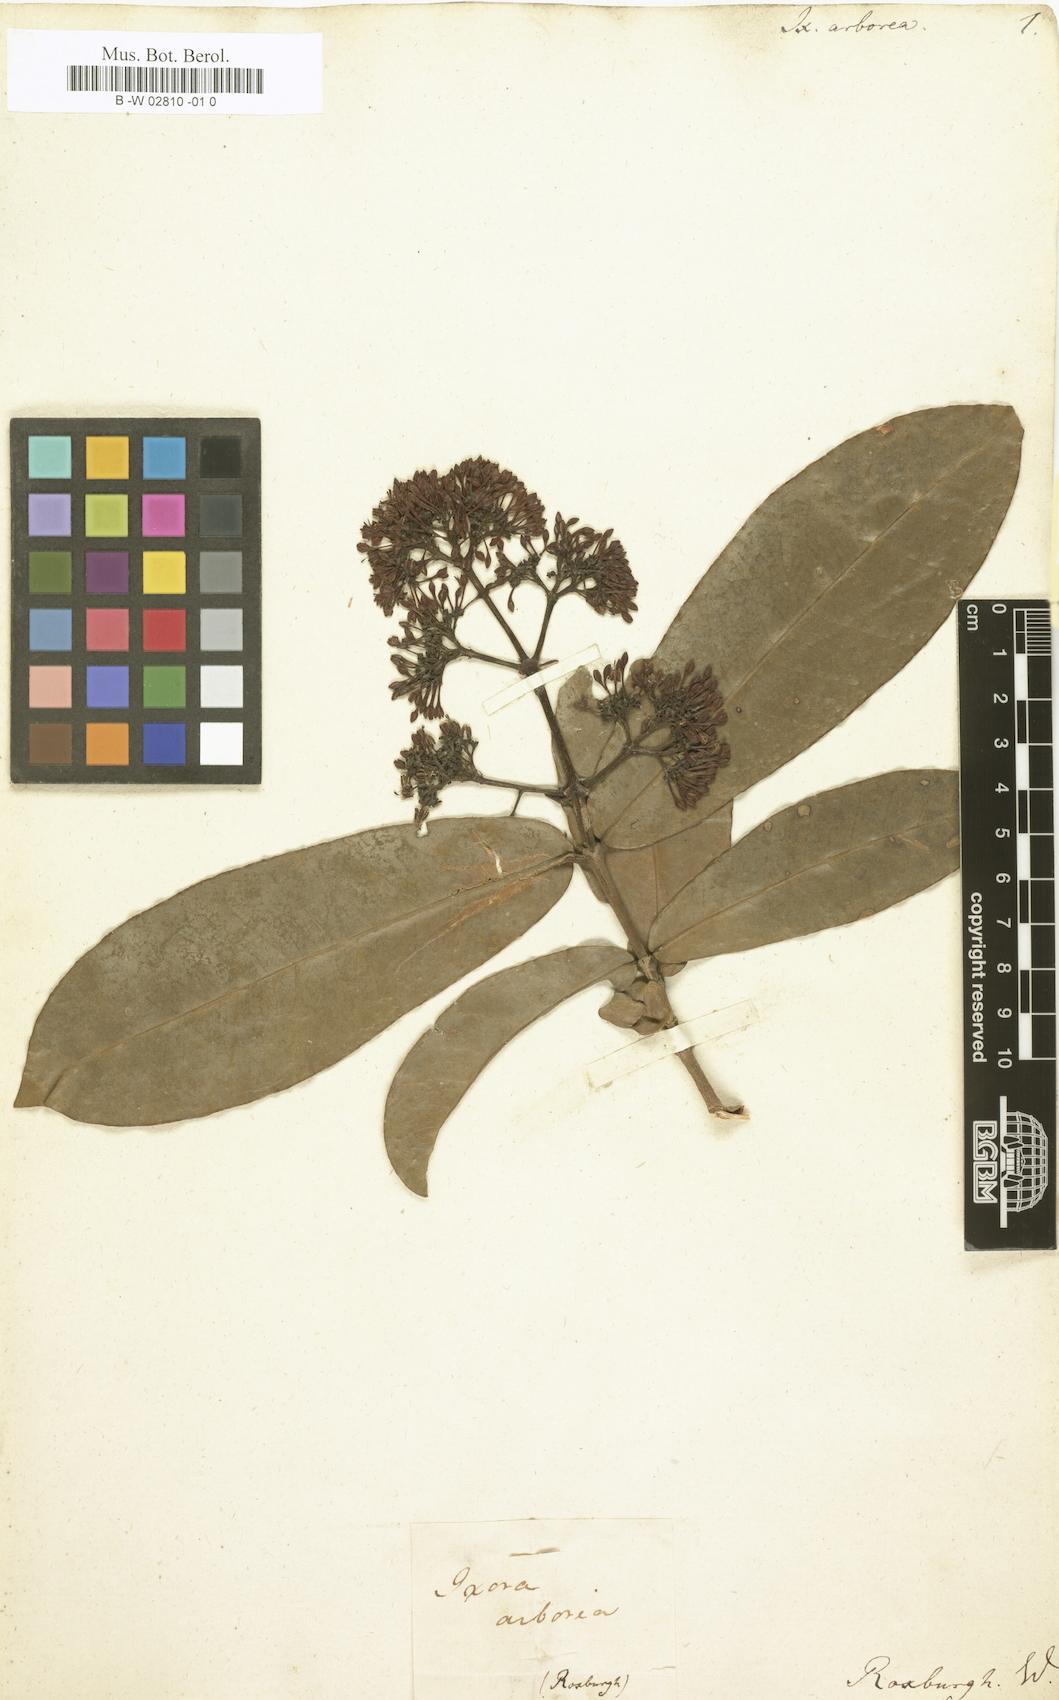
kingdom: Plantae
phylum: Tracheophyta
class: Magnoliopsida
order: Gentianales
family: Rubiaceae
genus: Ixora
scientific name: Ixora
